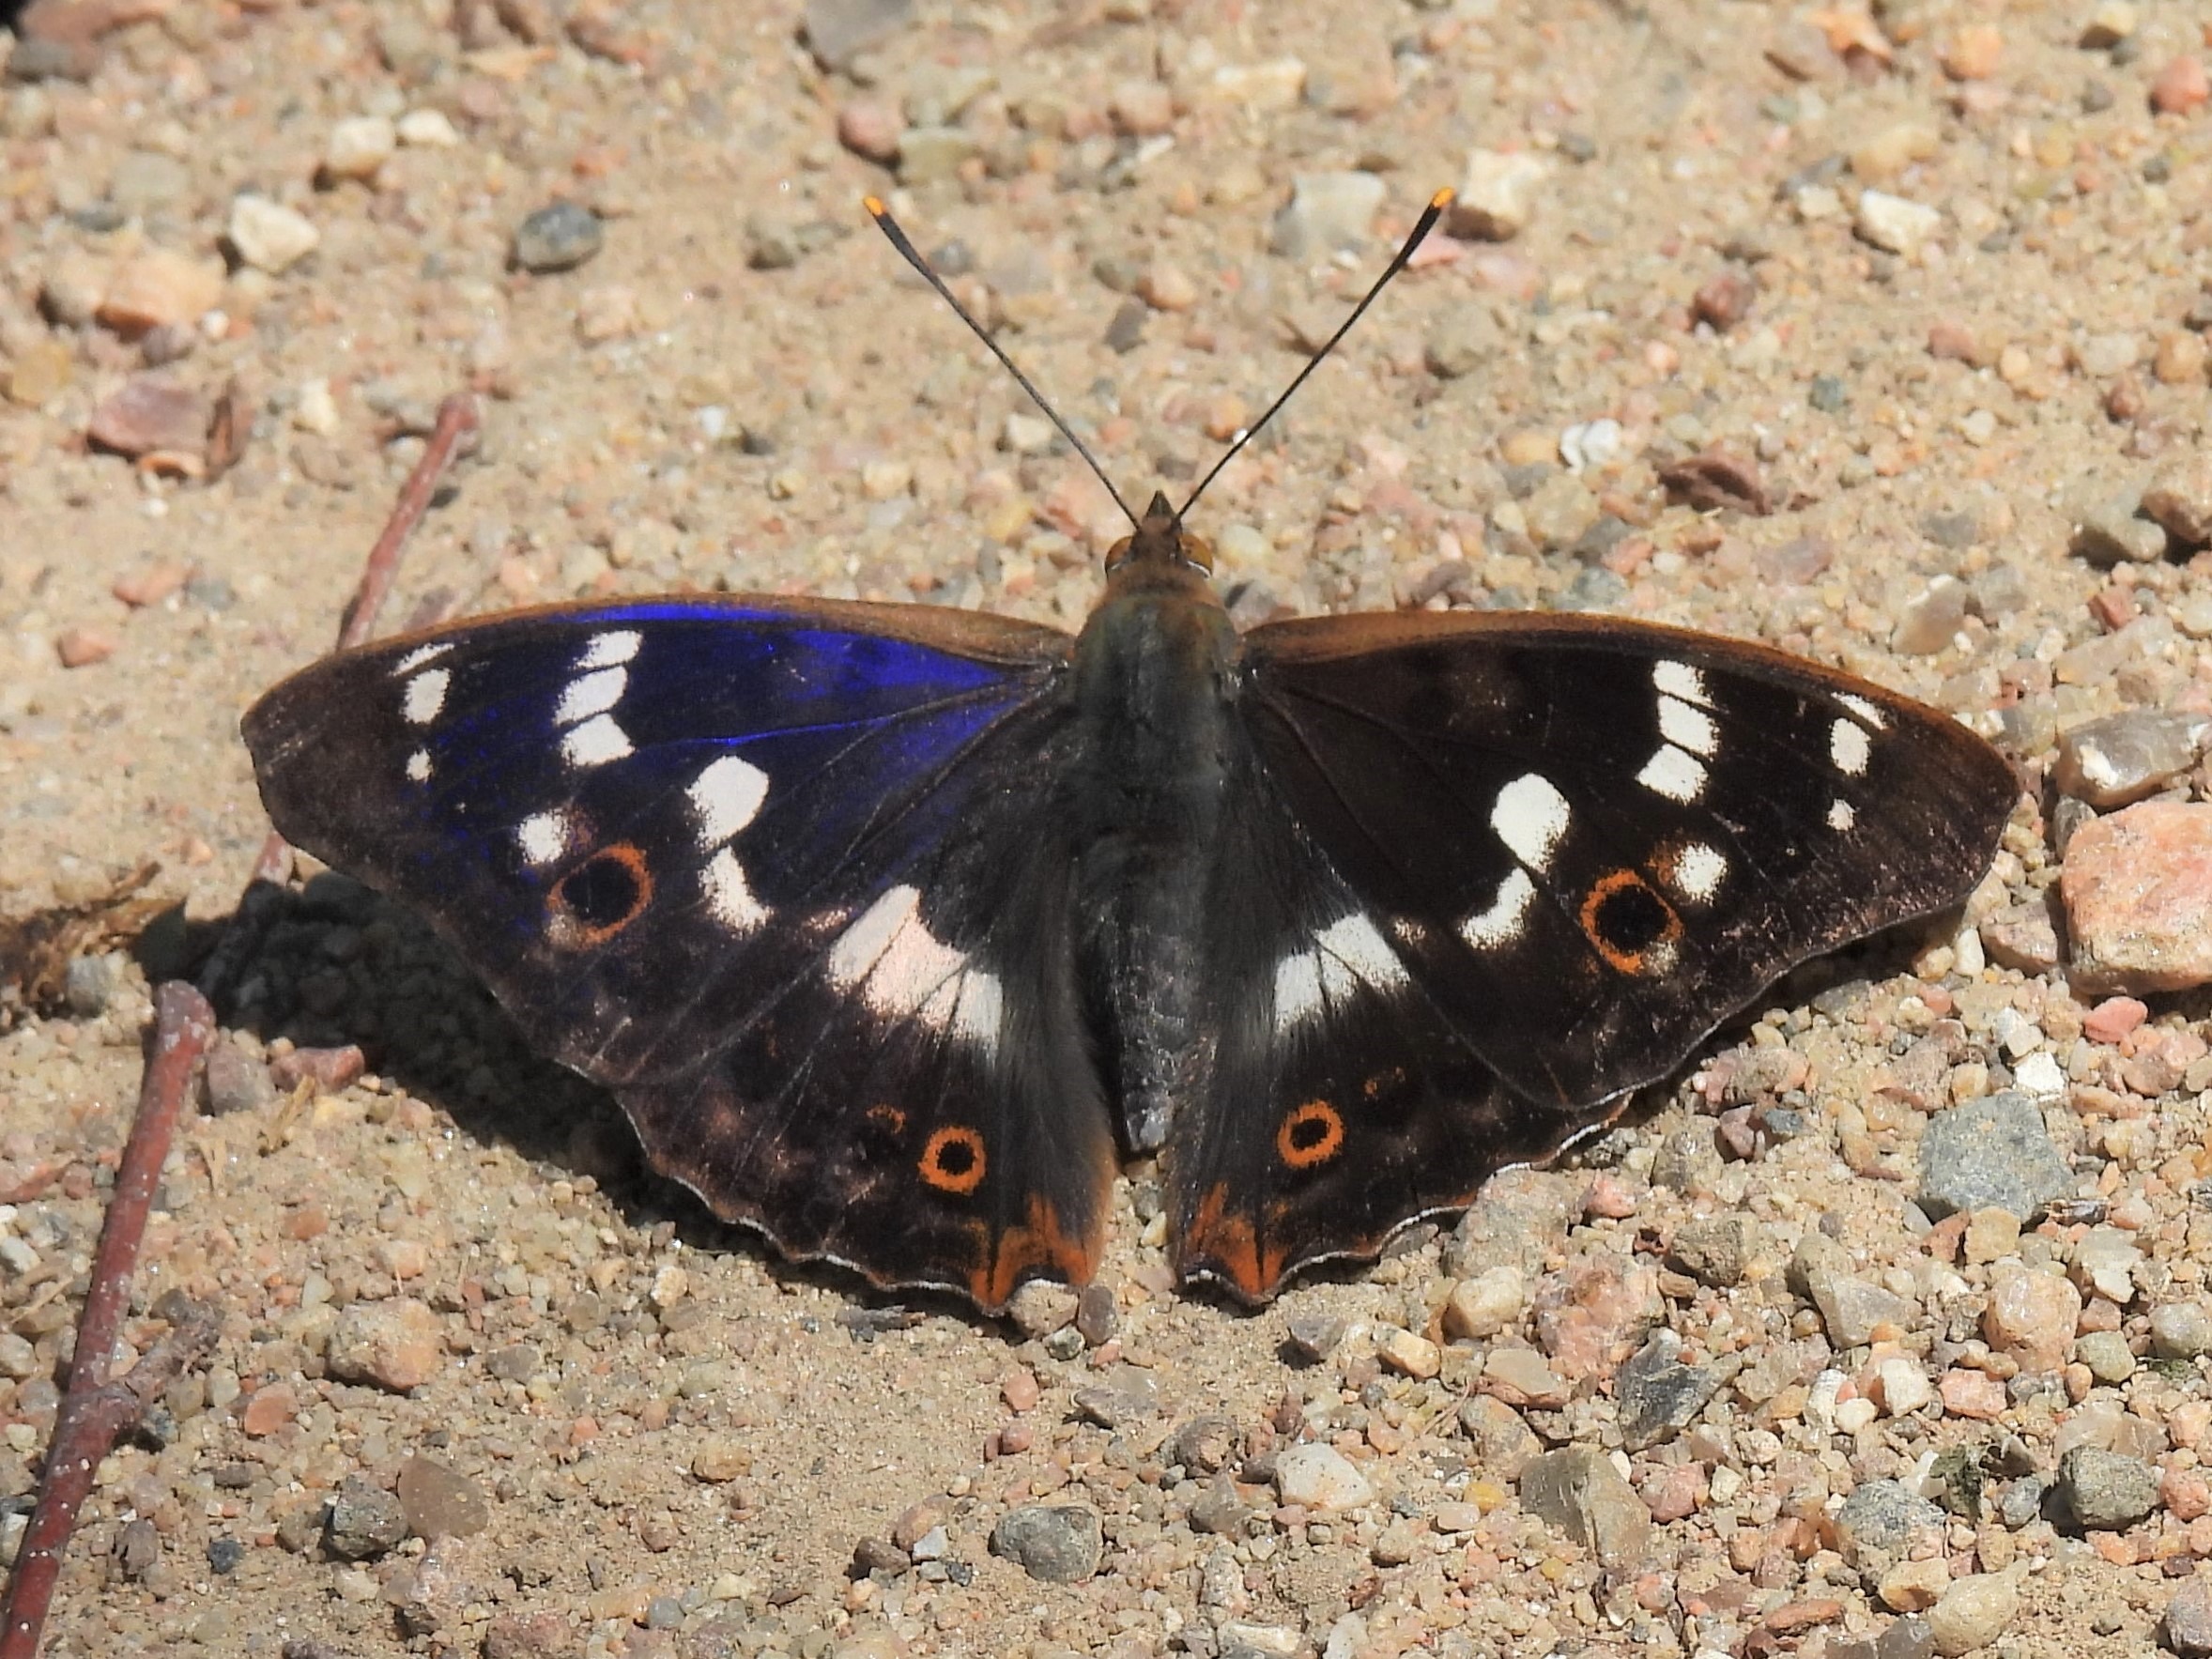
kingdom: Animalia
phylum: Arthropoda
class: Insecta
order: Lepidoptera
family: Nymphalidae
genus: Apatura
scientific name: Apatura ilia
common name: Ilia
